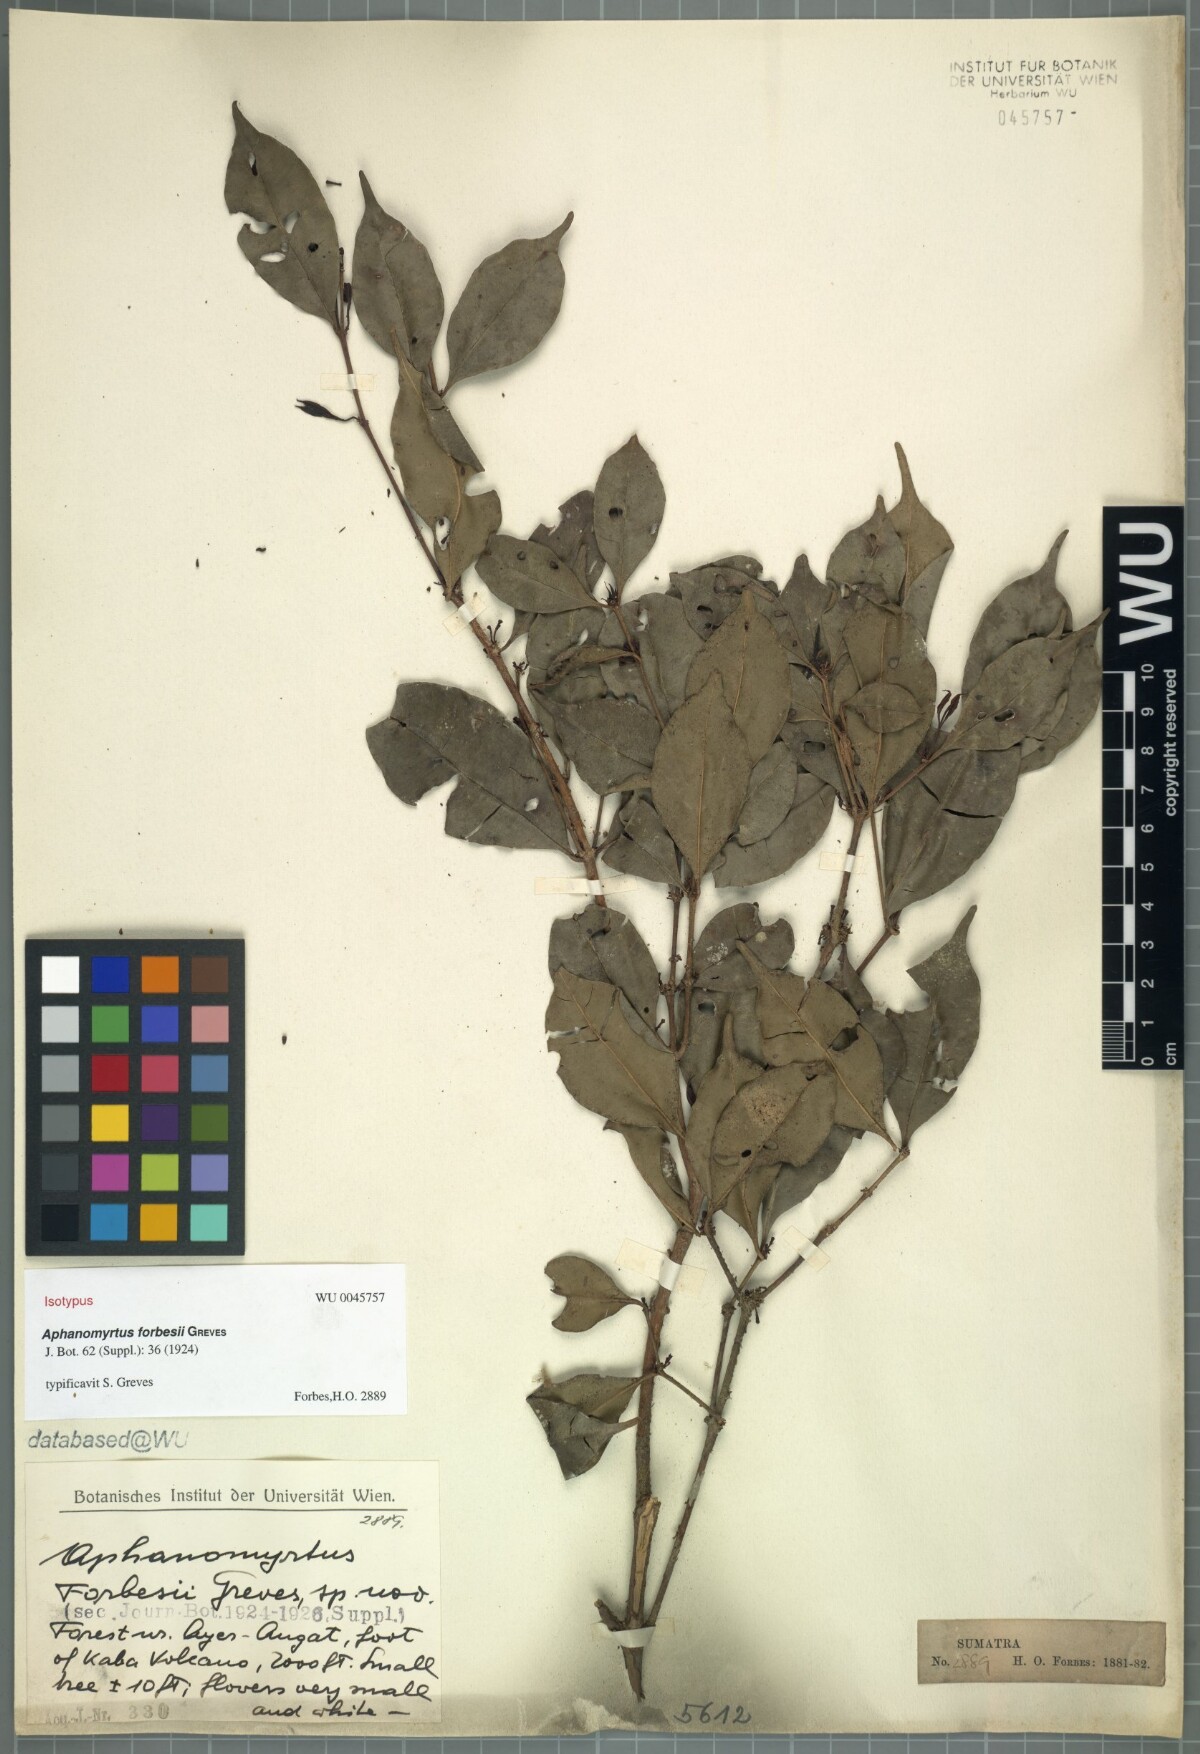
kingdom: Plantae
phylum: Tracheophyta
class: Magnoliopsida
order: Myrtales
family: Myrtaceae
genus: Syzygium
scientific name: Syzygium minimum
